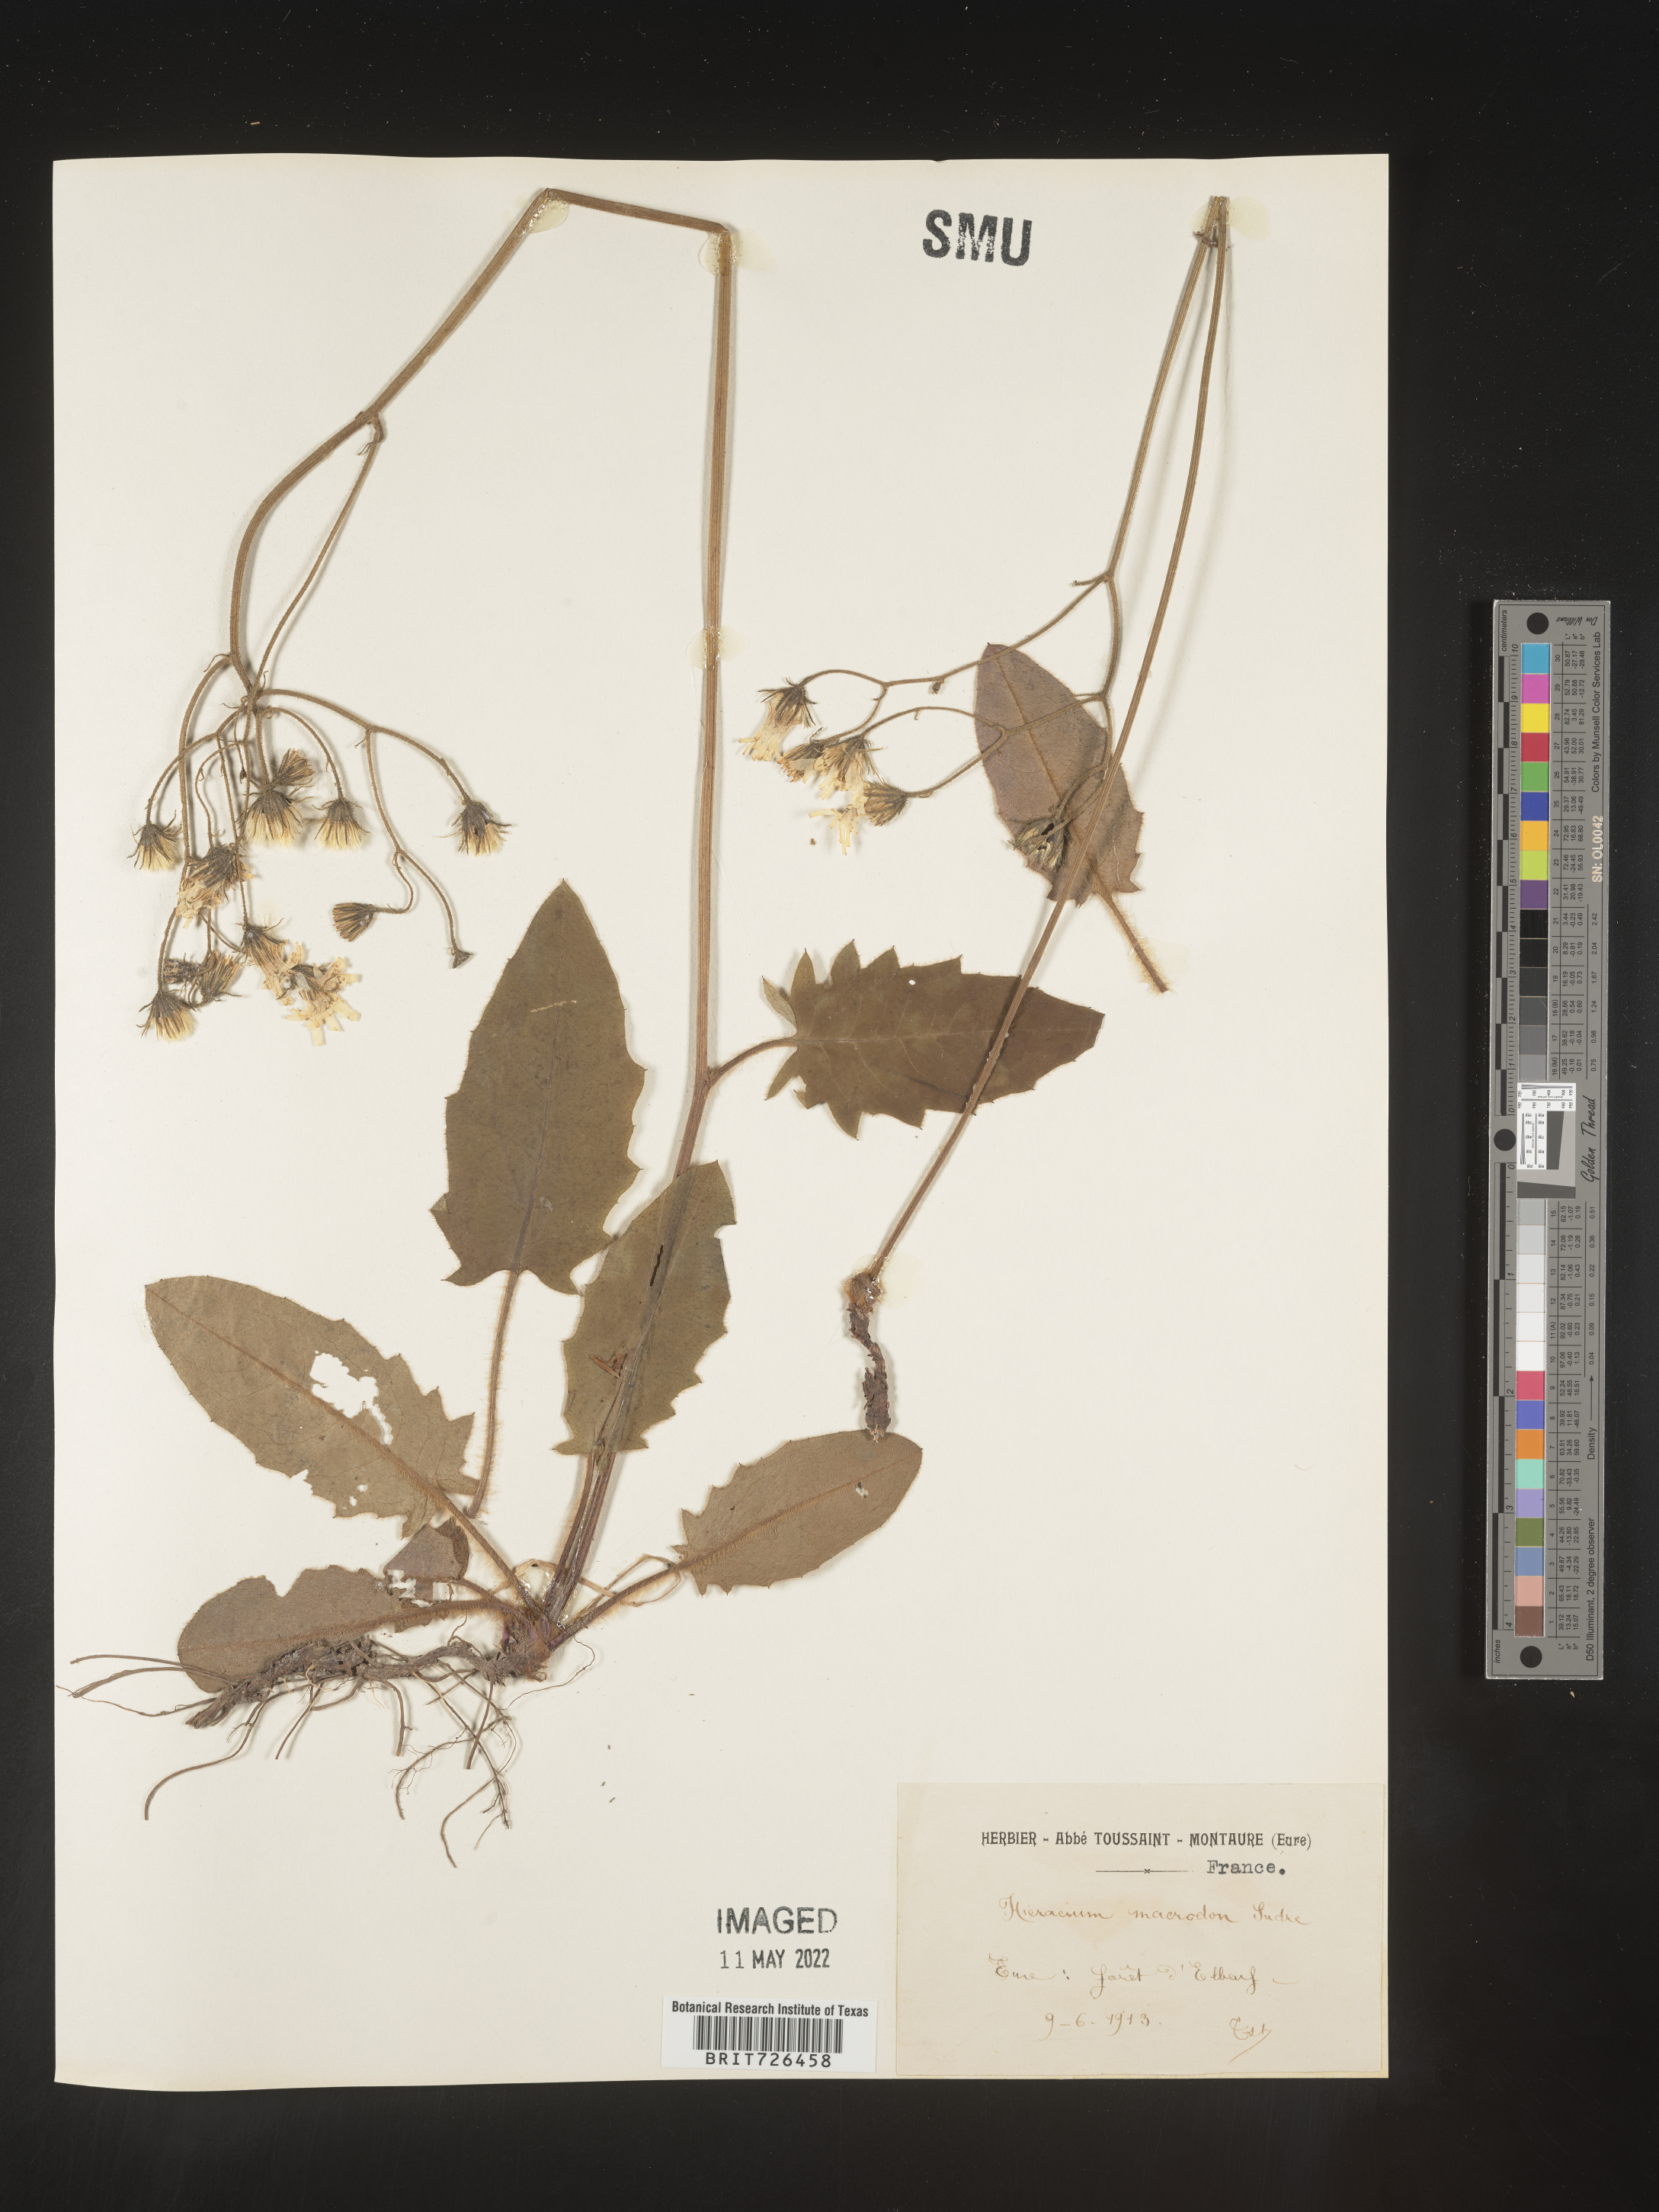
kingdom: Plantae
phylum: Tracheophyta
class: Magnoliopsida
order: Asterales
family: Asteraceae
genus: Hieracium
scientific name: Hieracium
